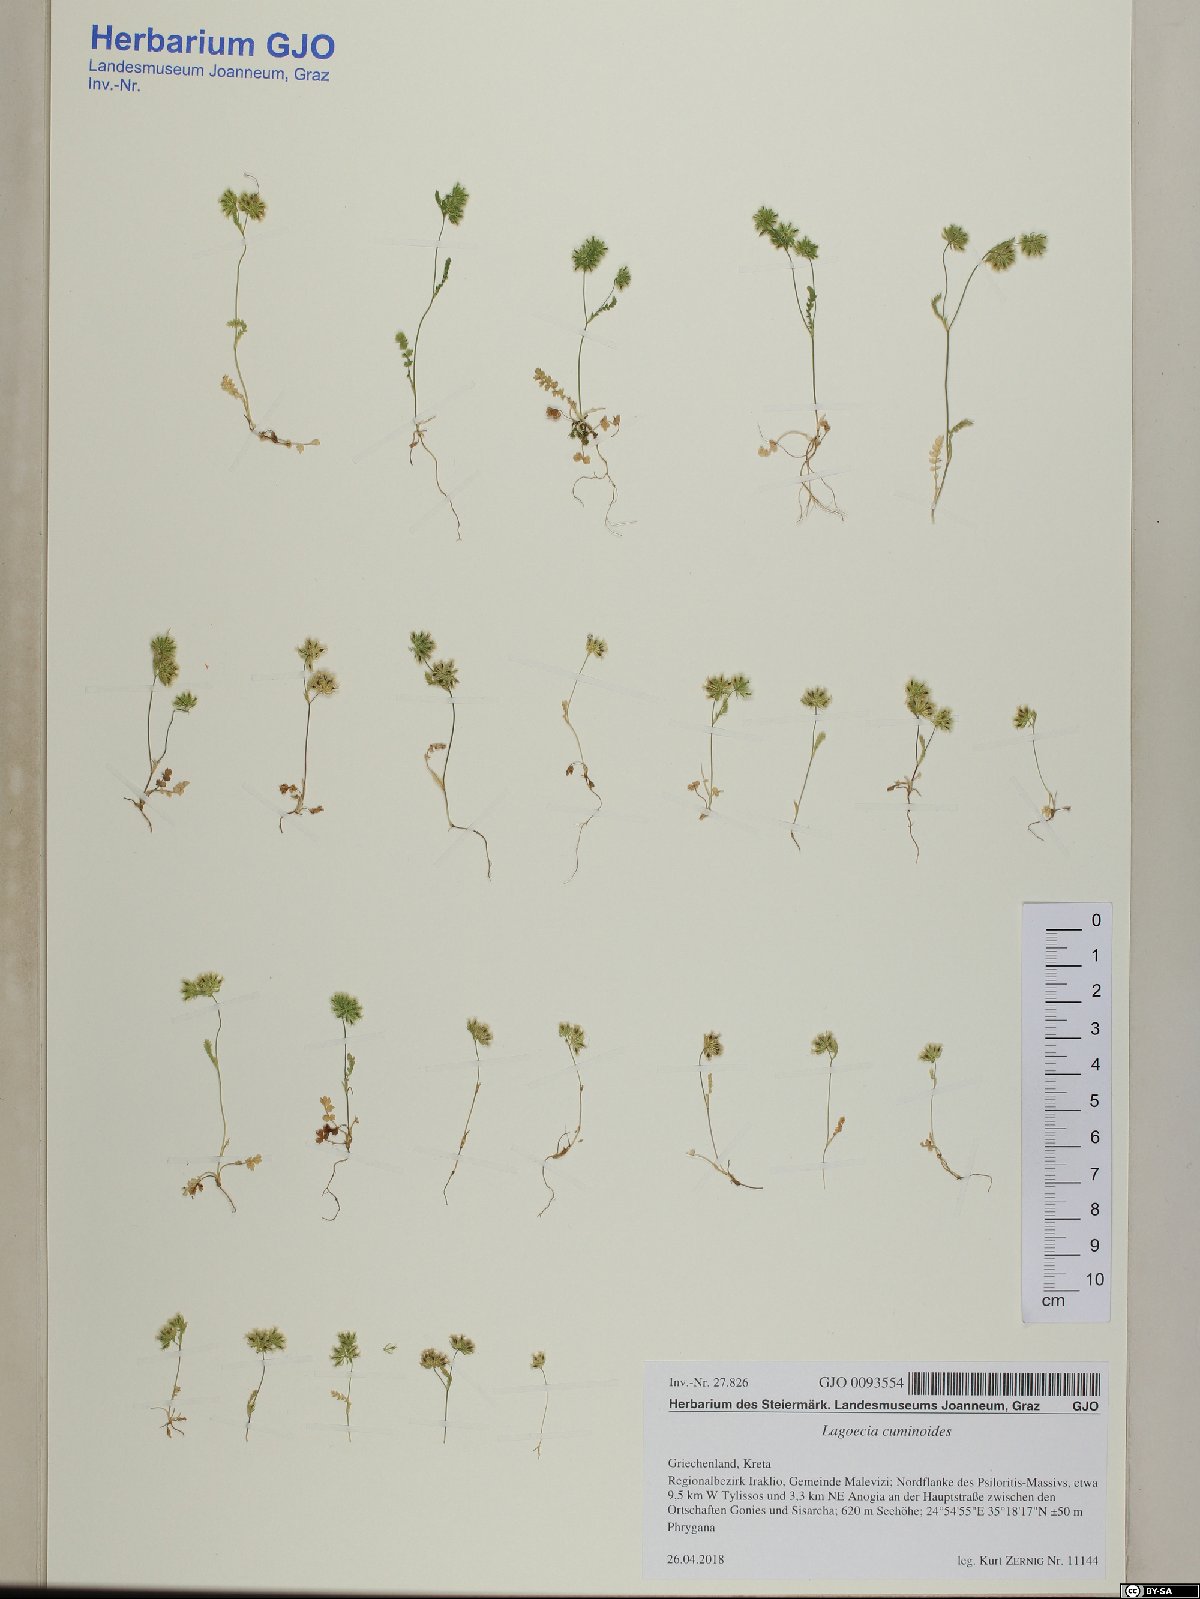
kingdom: Plantae
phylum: Tracheophyta
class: Magnoliopsida
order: Apiales
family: Apiaceae
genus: Lagoecia
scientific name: Lagoecia cuminoides
